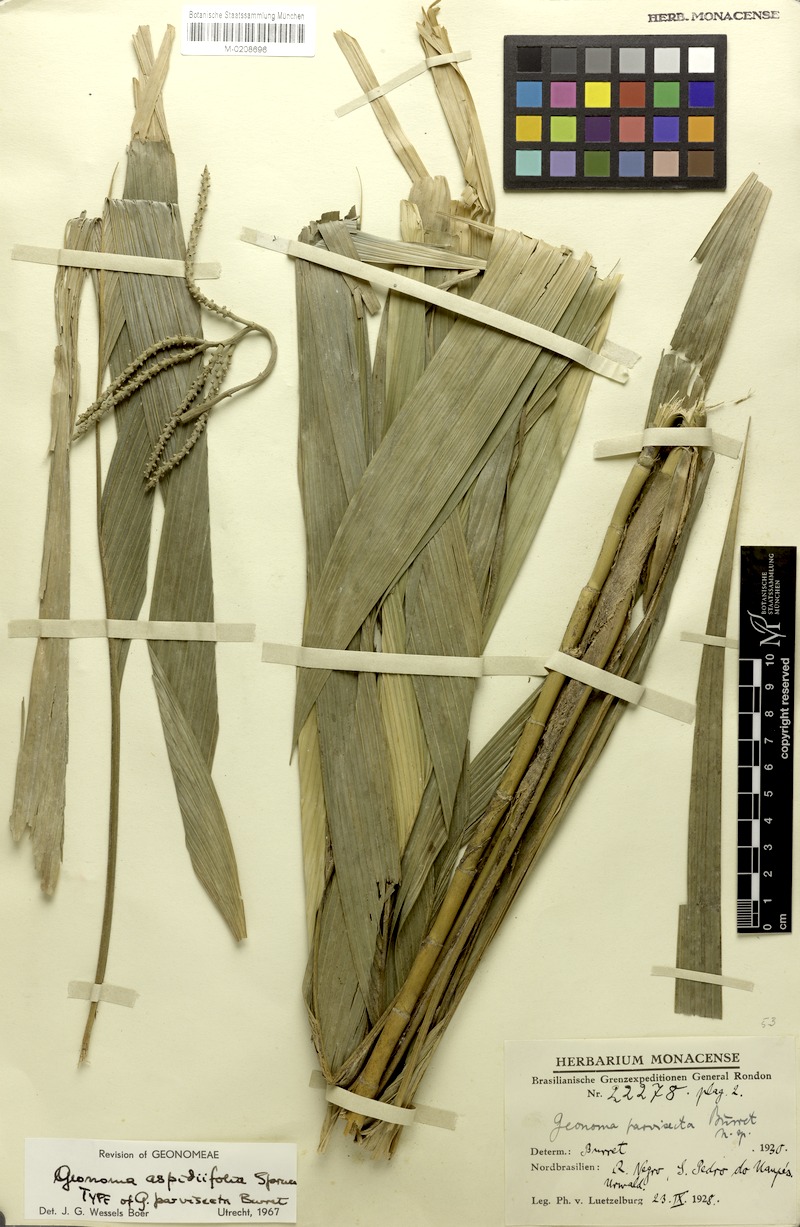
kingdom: Plantae
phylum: Tracheophyta
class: Liliopsida
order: Arecales
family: Arecaceae
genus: Geonoma
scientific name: Geonoma maxima
